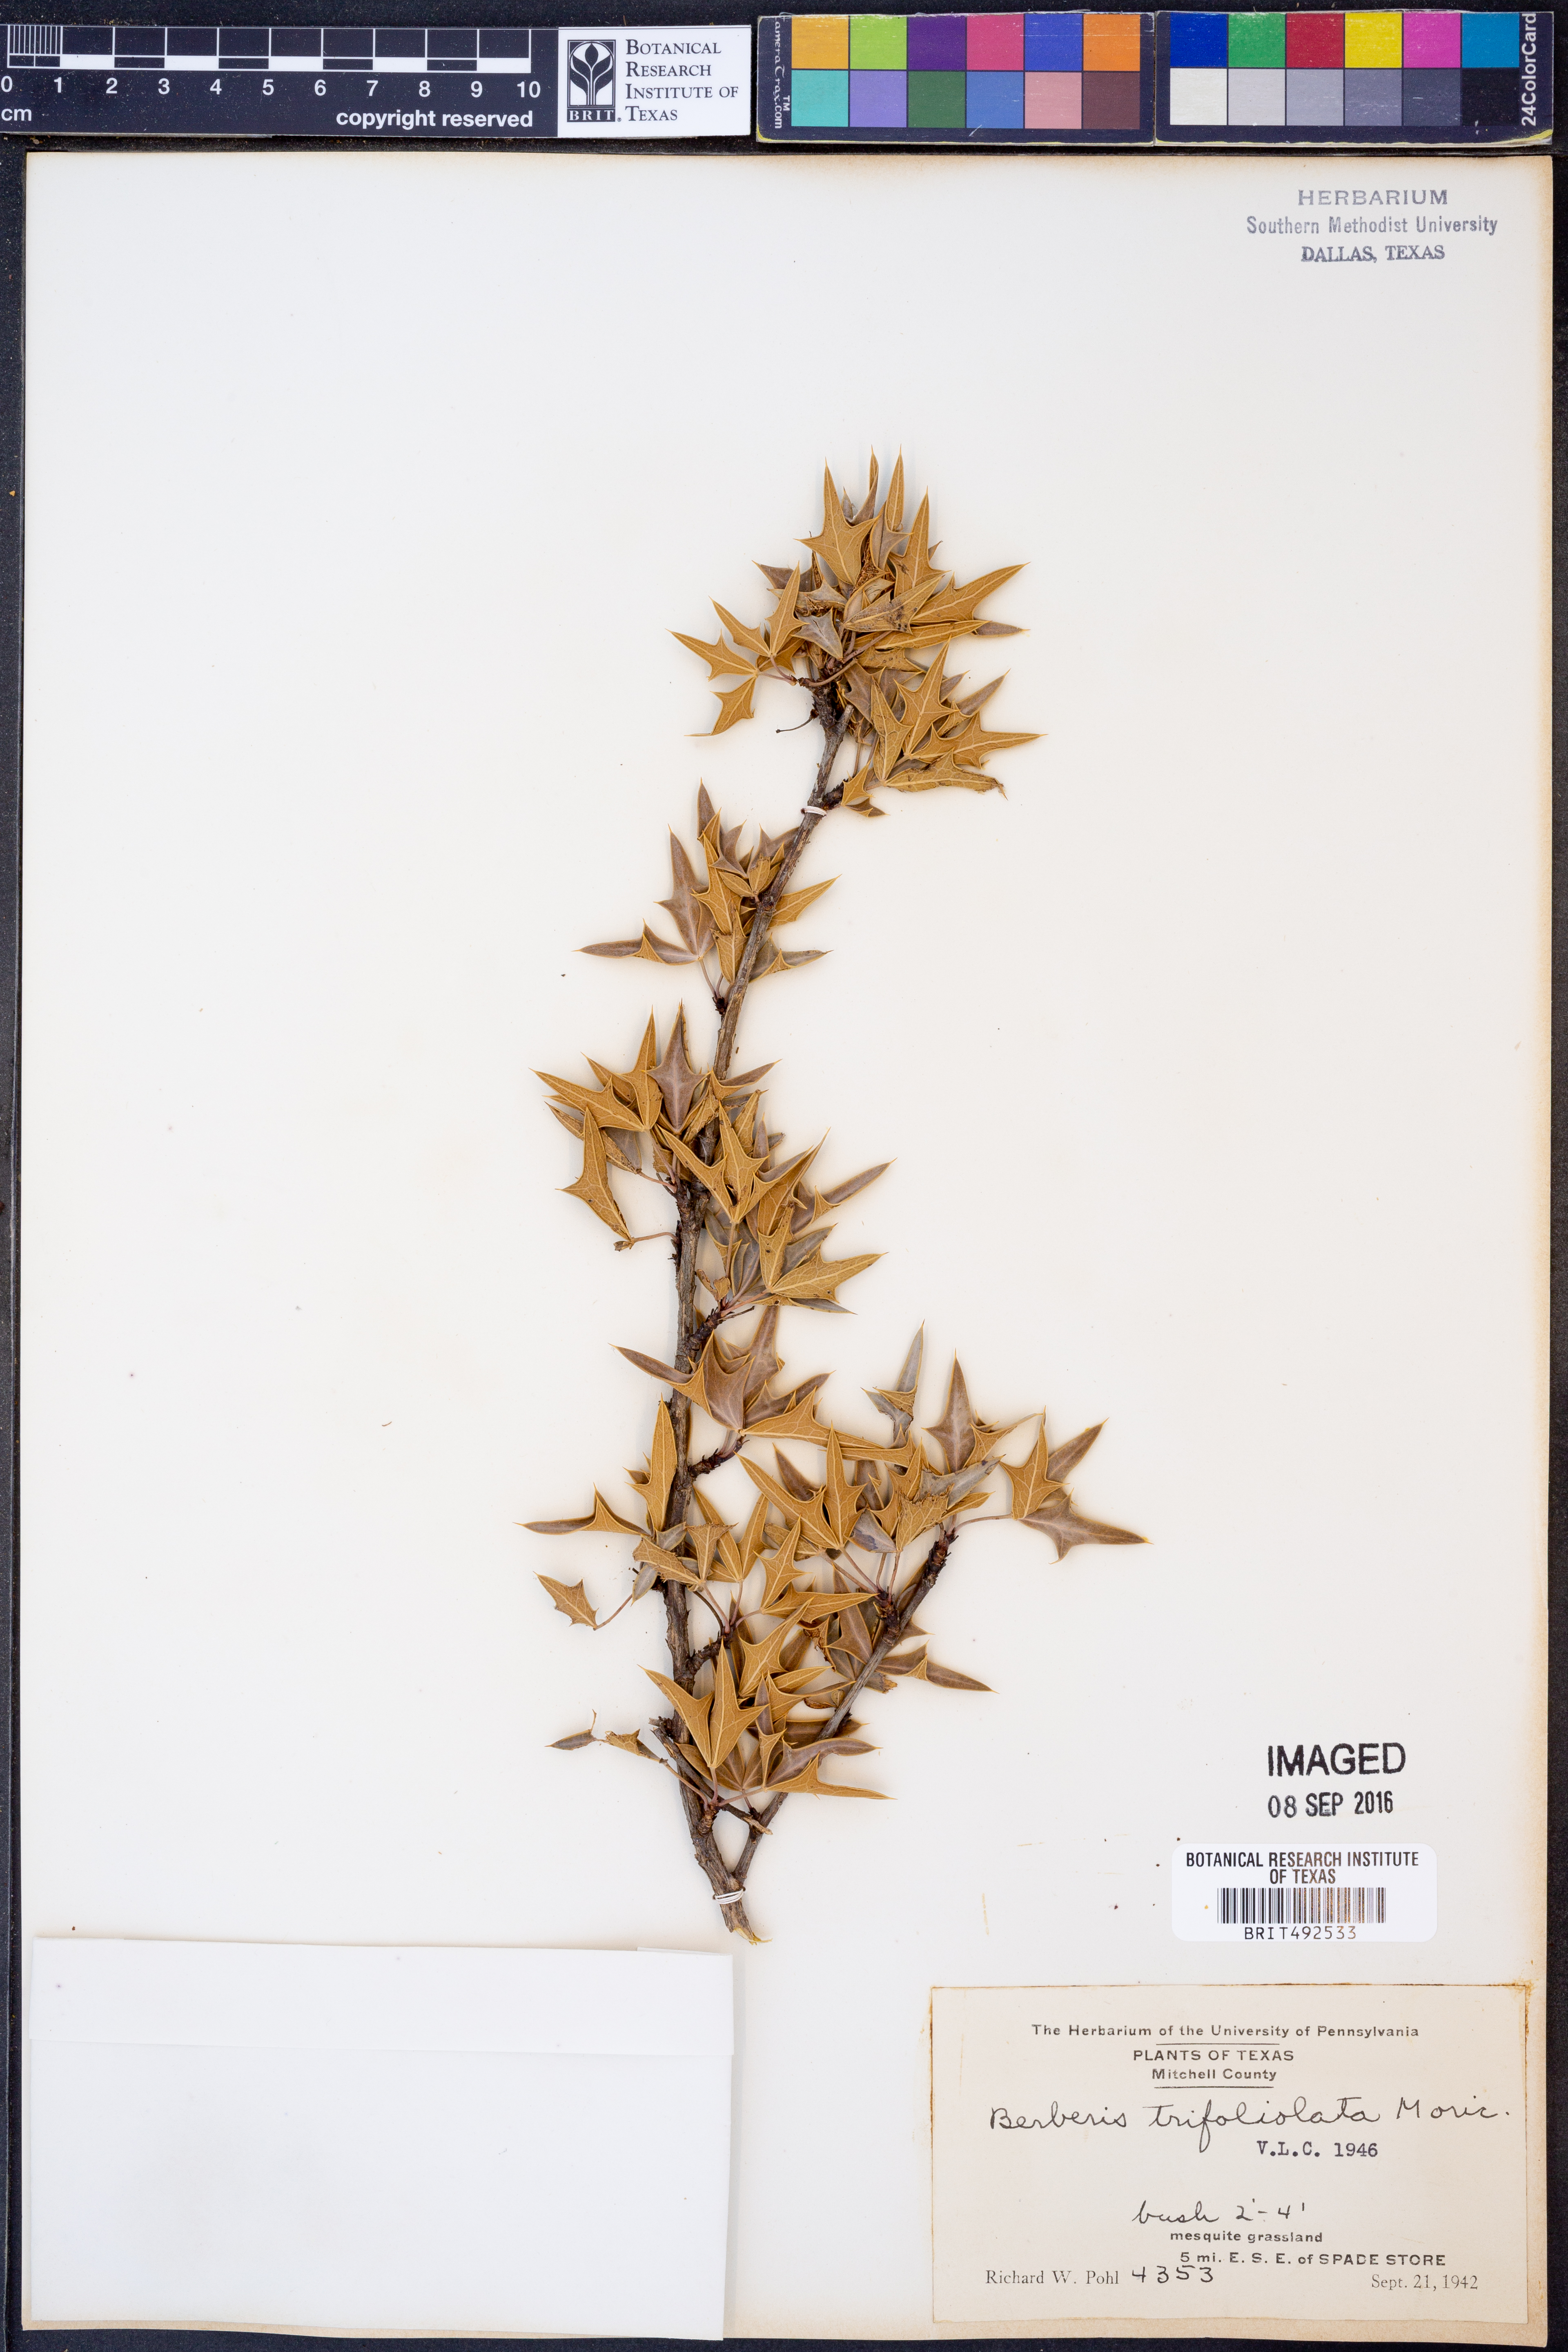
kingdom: Plantae
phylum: Tracheophyta
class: Magnoliopsida
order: Ranunculales
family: Berberidaceae
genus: Alloberberis
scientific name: Alloberberis trifoliolata
